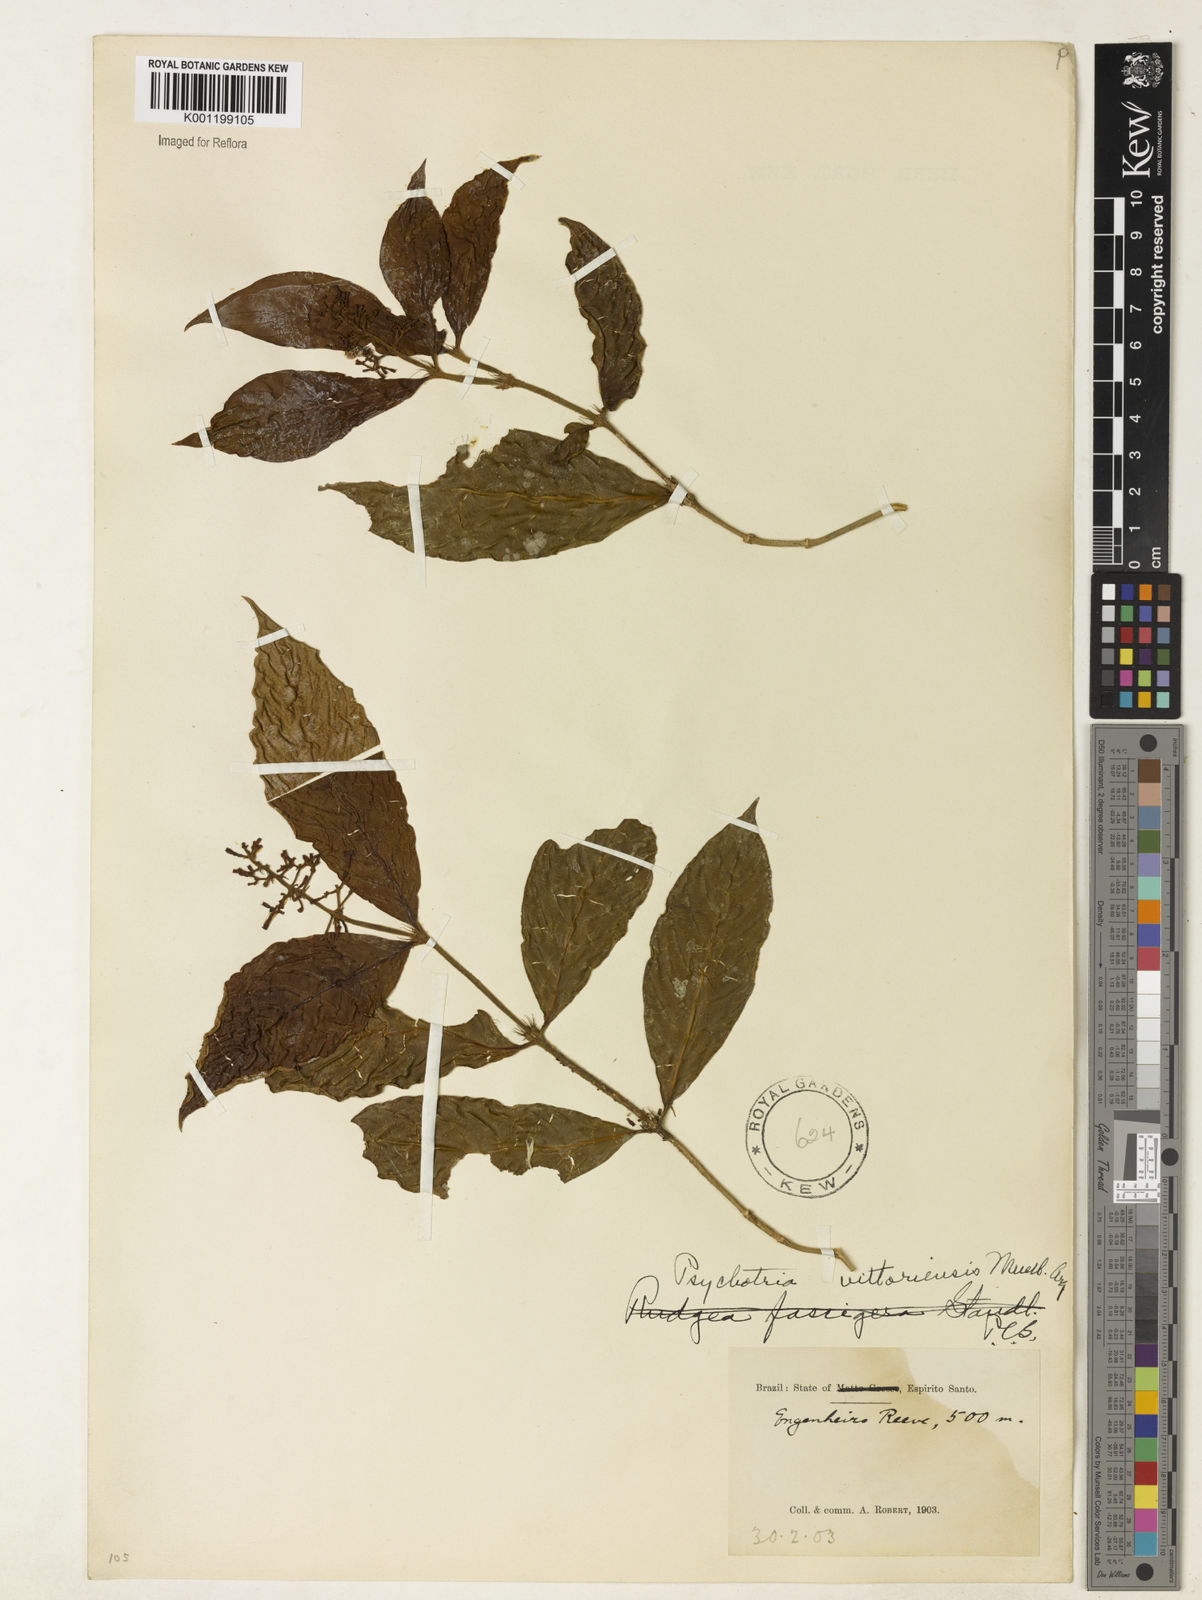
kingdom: Plantae
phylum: Tracheophyta
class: Magnoliopsida
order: Gentianales
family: Rubiaceae
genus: Psychotria
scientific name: Psychotria
